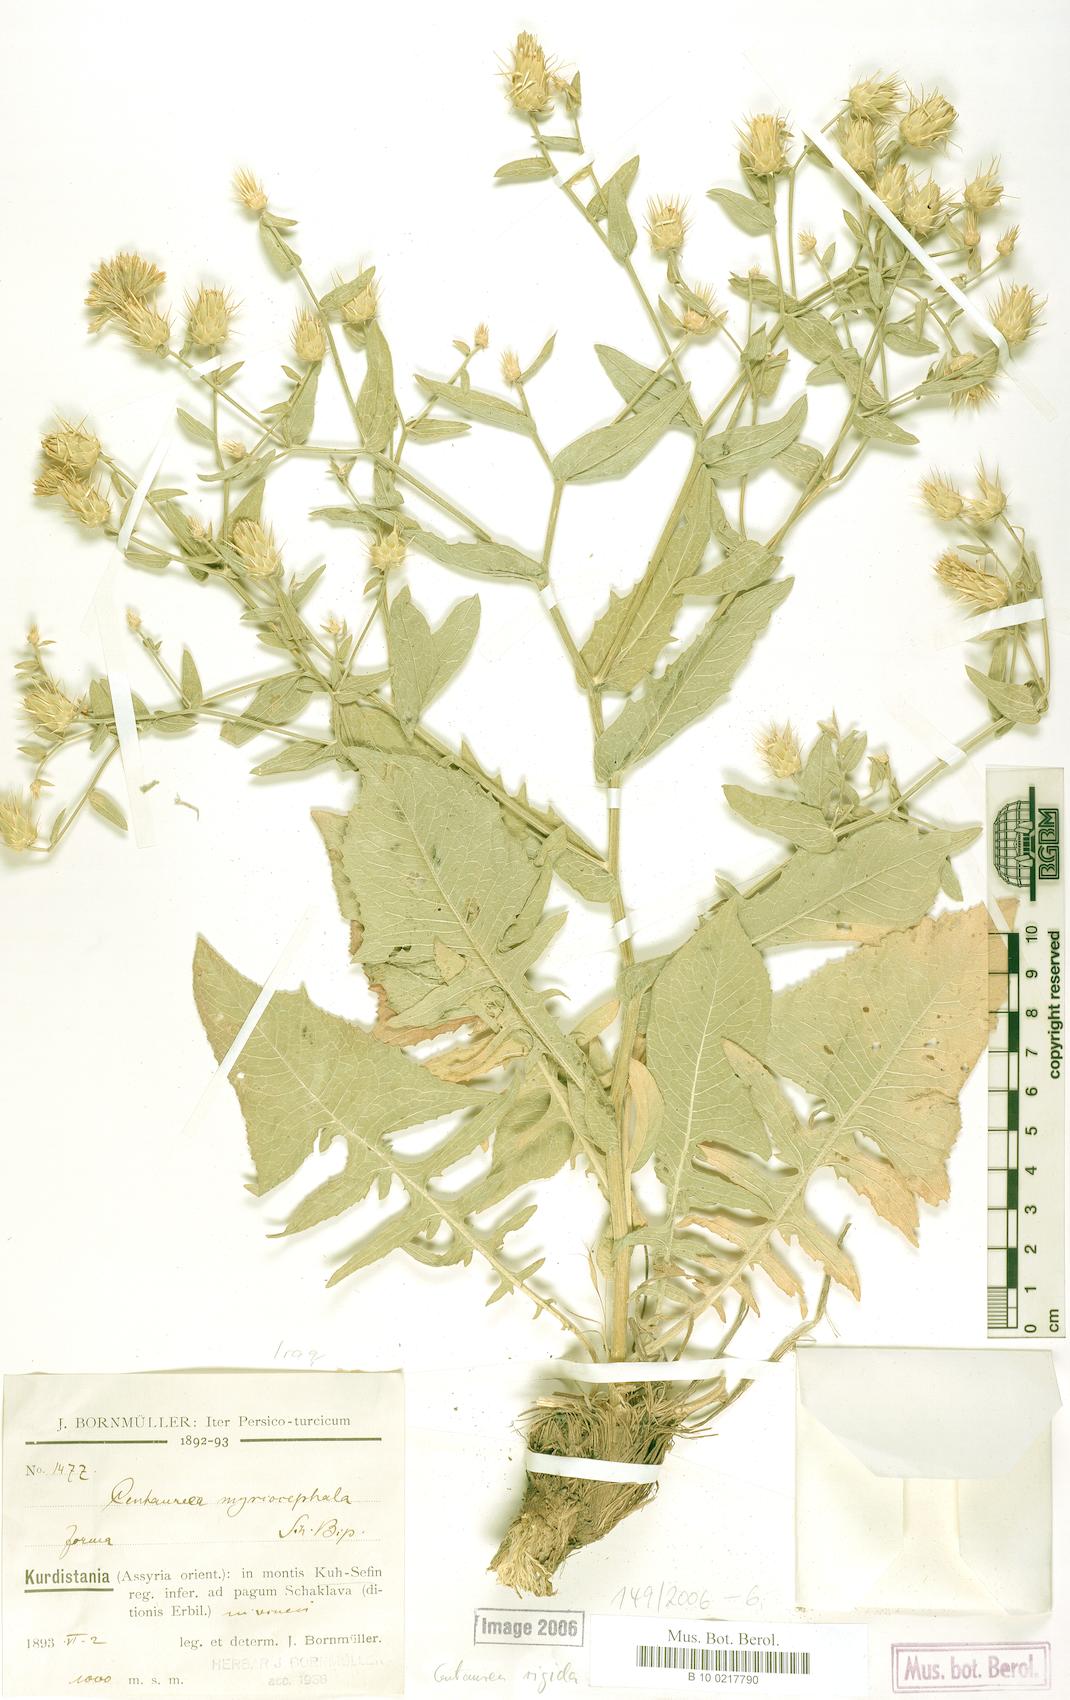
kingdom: Plantae
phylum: Tracheophyta
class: Magnoliopsida
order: Asterales
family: Asteraceae
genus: Centaurea
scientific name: Centaurea rigida
